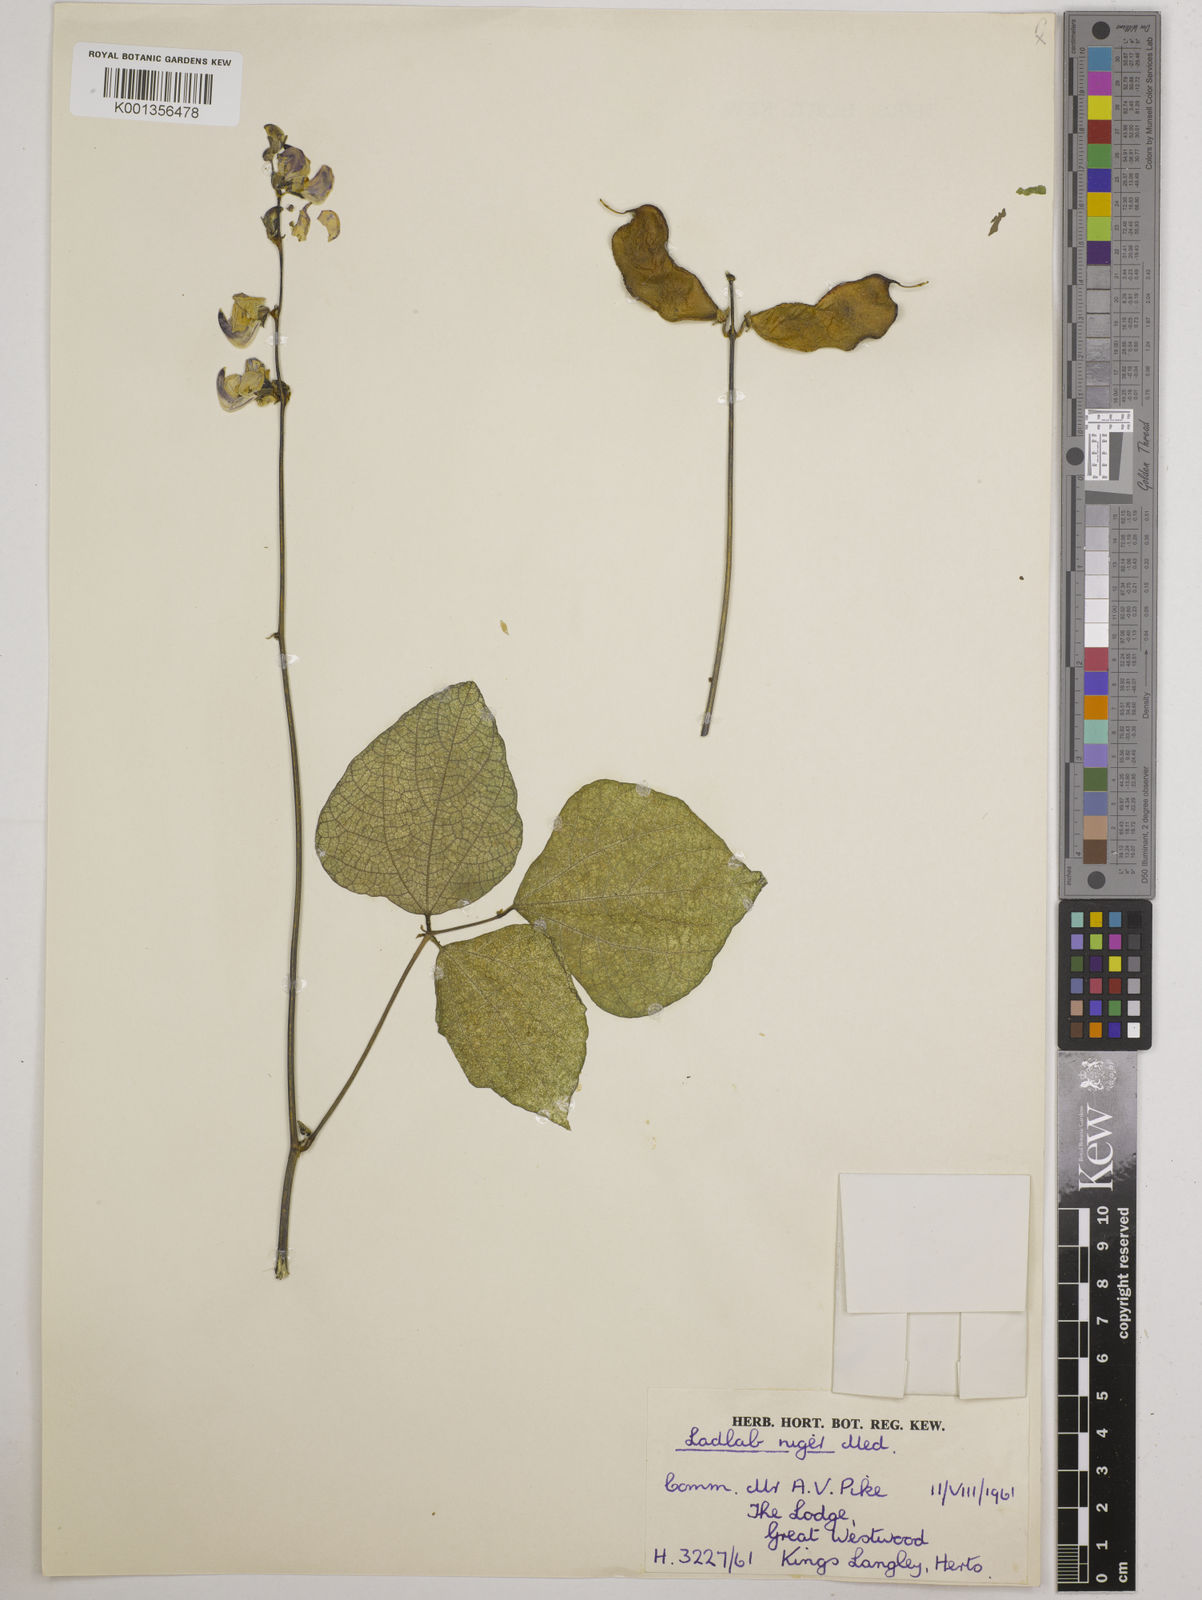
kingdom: Plantae
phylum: Tracheophyta
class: Magnoliopsida
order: Fabales
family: Fabaceae
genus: Lablab
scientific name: Lablab purpureus
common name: Lablab-bean
